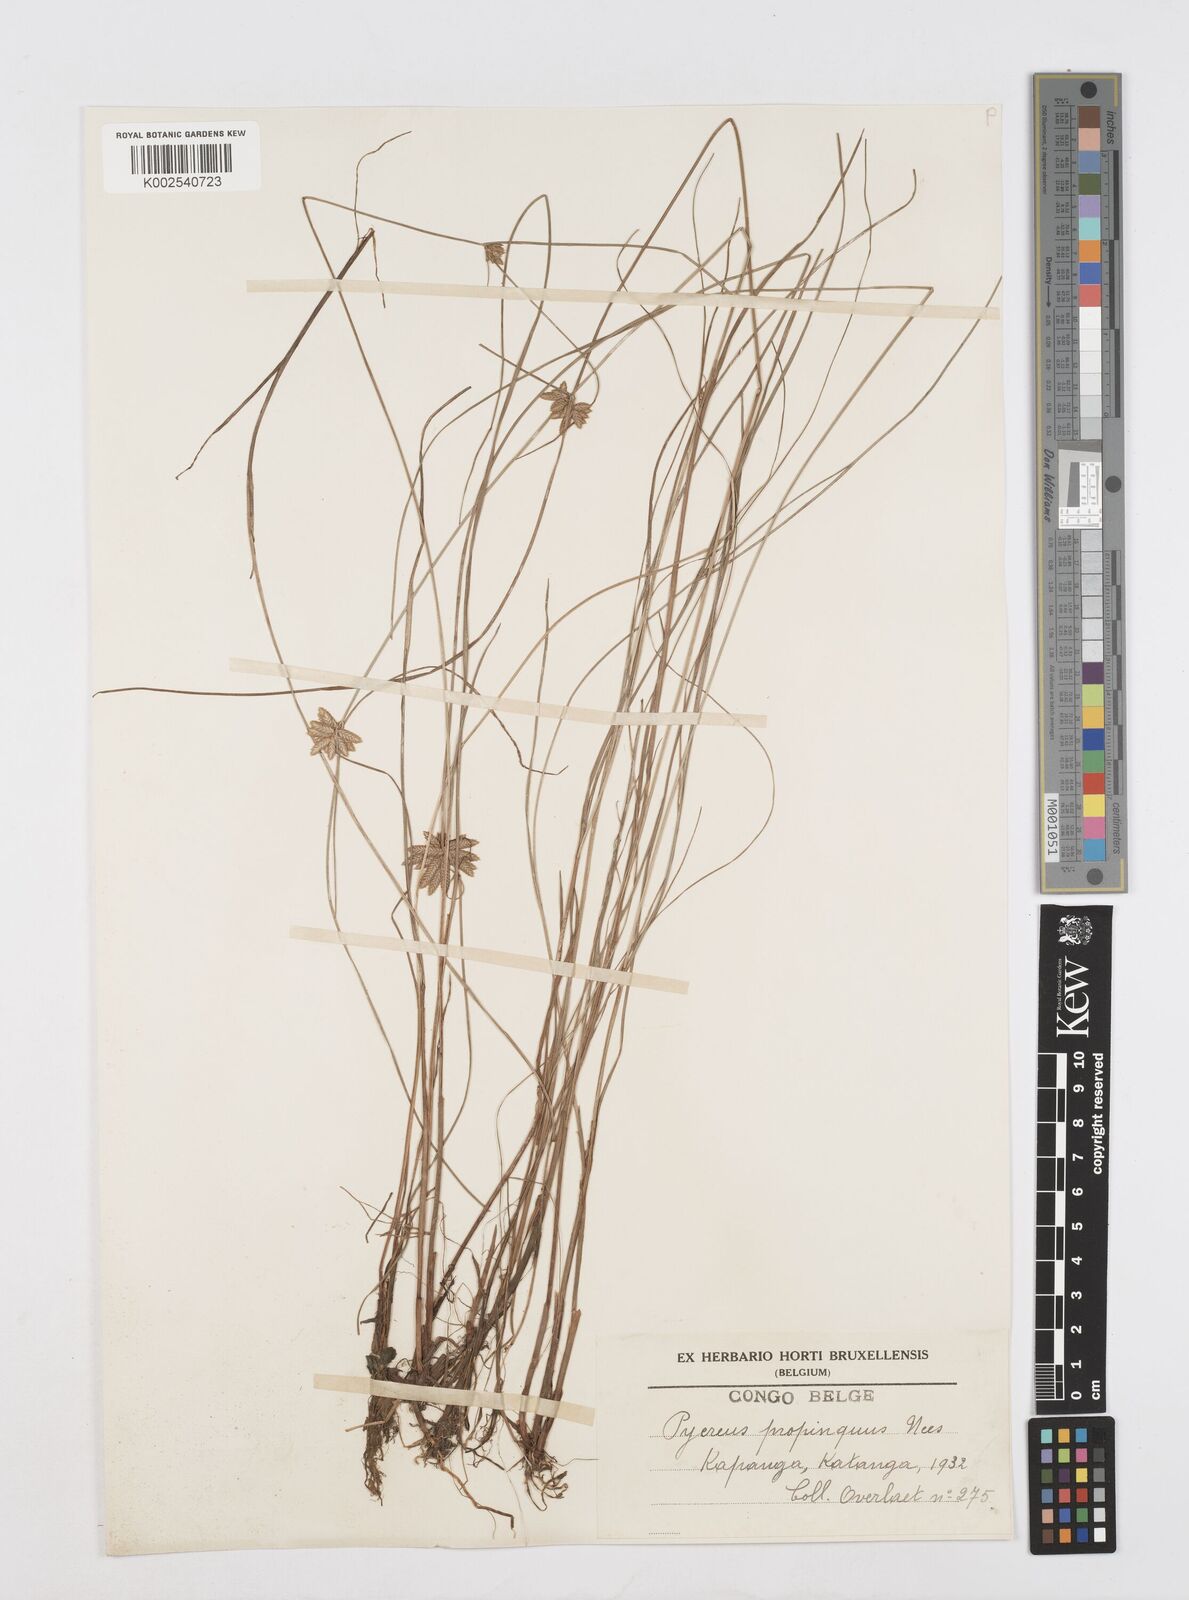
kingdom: Plantae
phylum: Tracheophyta
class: Liliopsida
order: Poales
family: Cyperaceae
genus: Cyperus
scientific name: Cyperus
